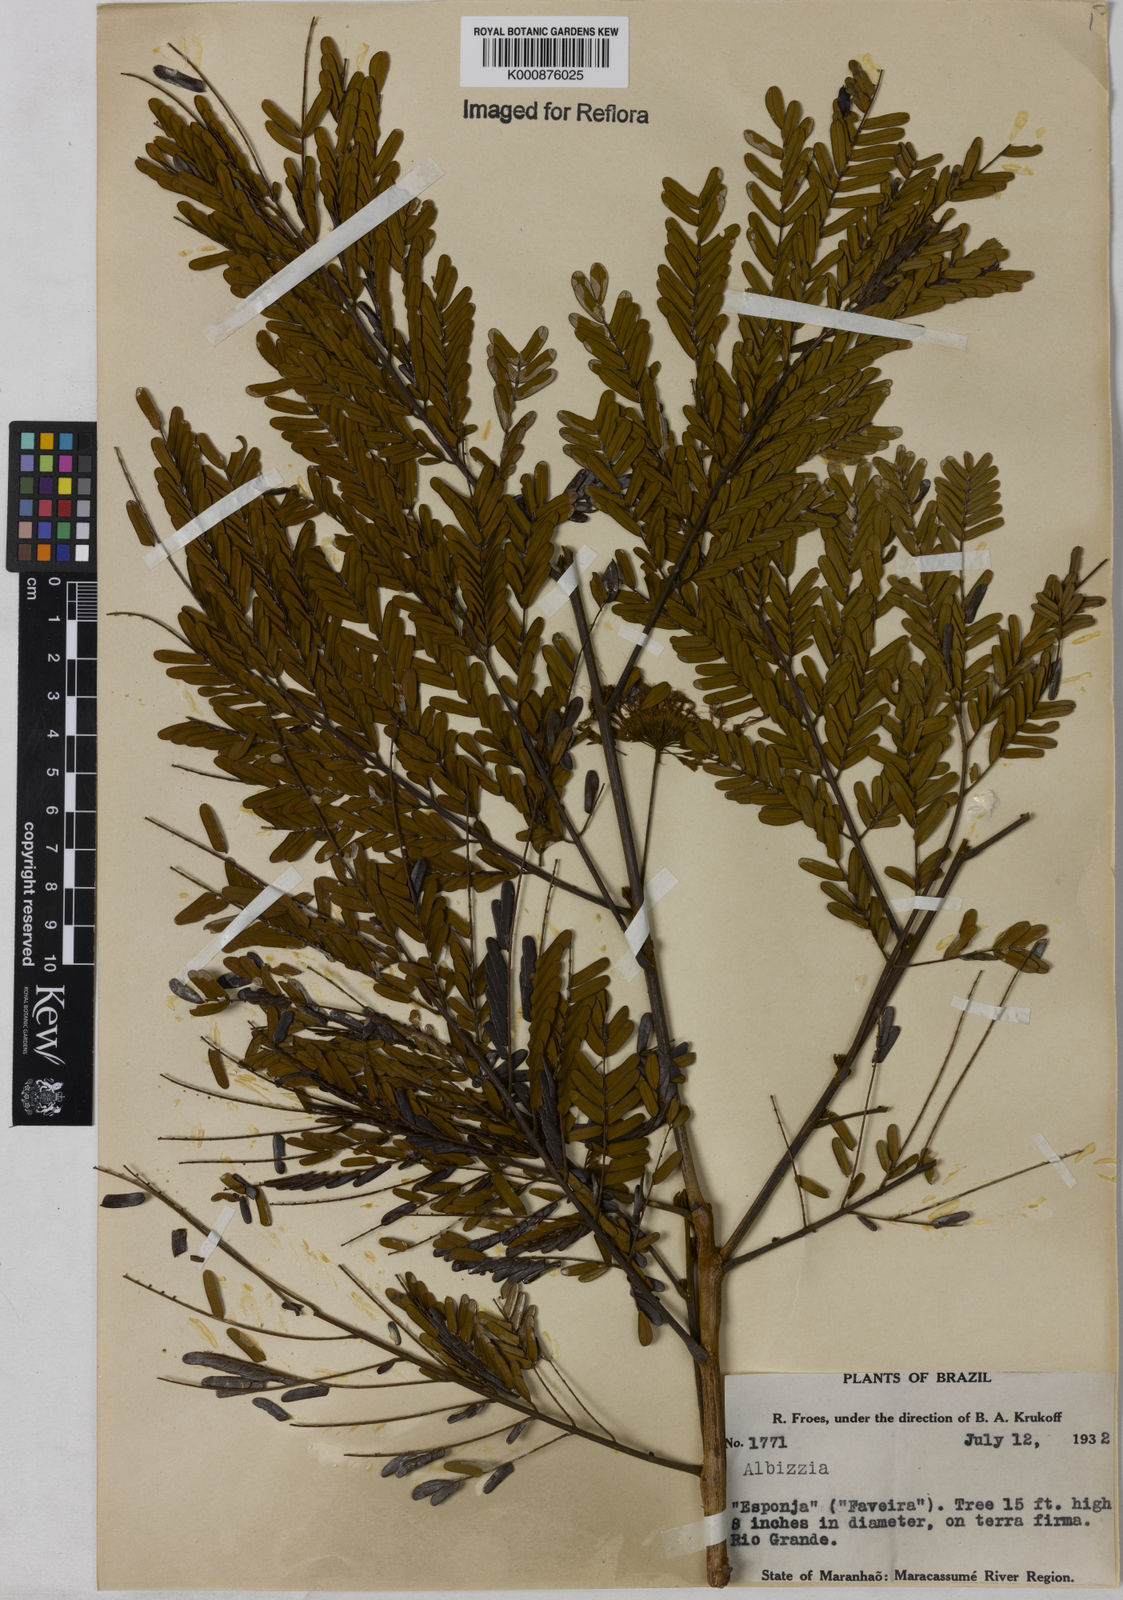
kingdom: Plantae
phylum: Tracheophyta
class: Magnoliopsida
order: Fabales
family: Fabaceae
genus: Balizia
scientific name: Balizia pedicellaris
